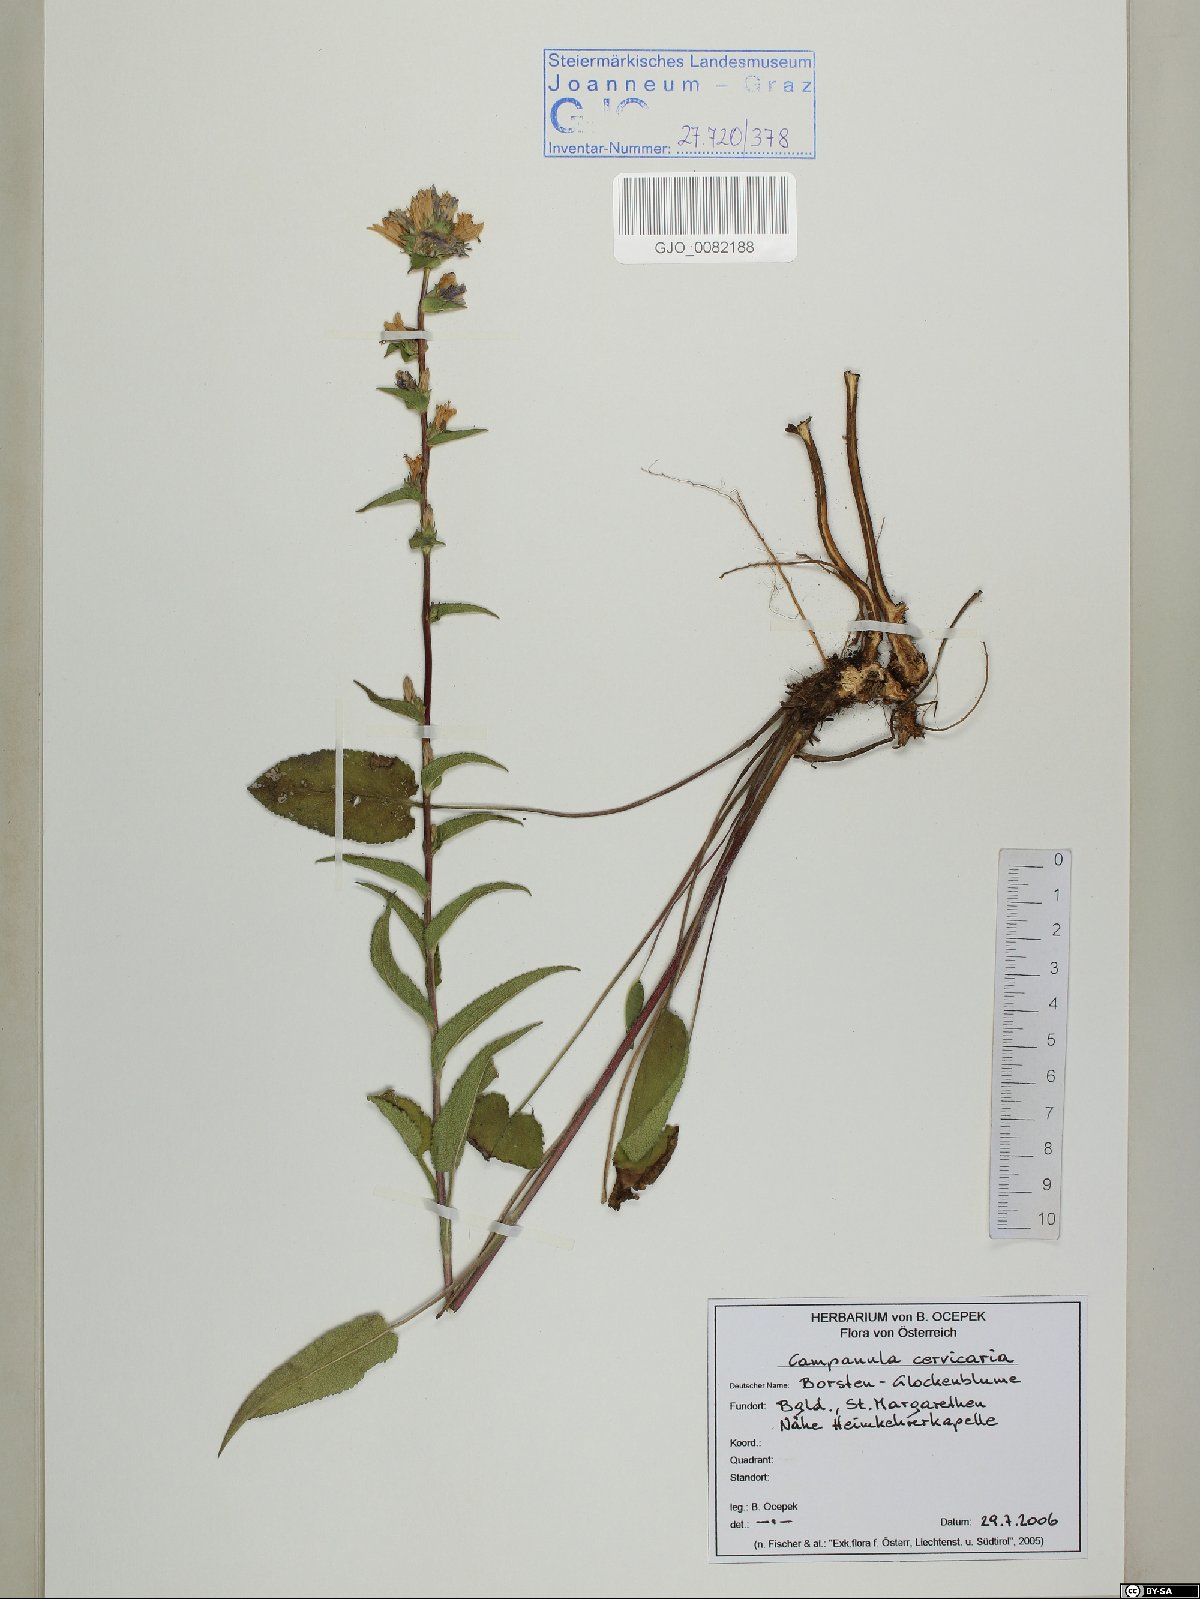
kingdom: Plantae
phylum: Tracheophyta
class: Magnoliopsida
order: Asterales
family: Campanulaceae
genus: Campanula
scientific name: Campanula cervicaria
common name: Bristly bellflower
